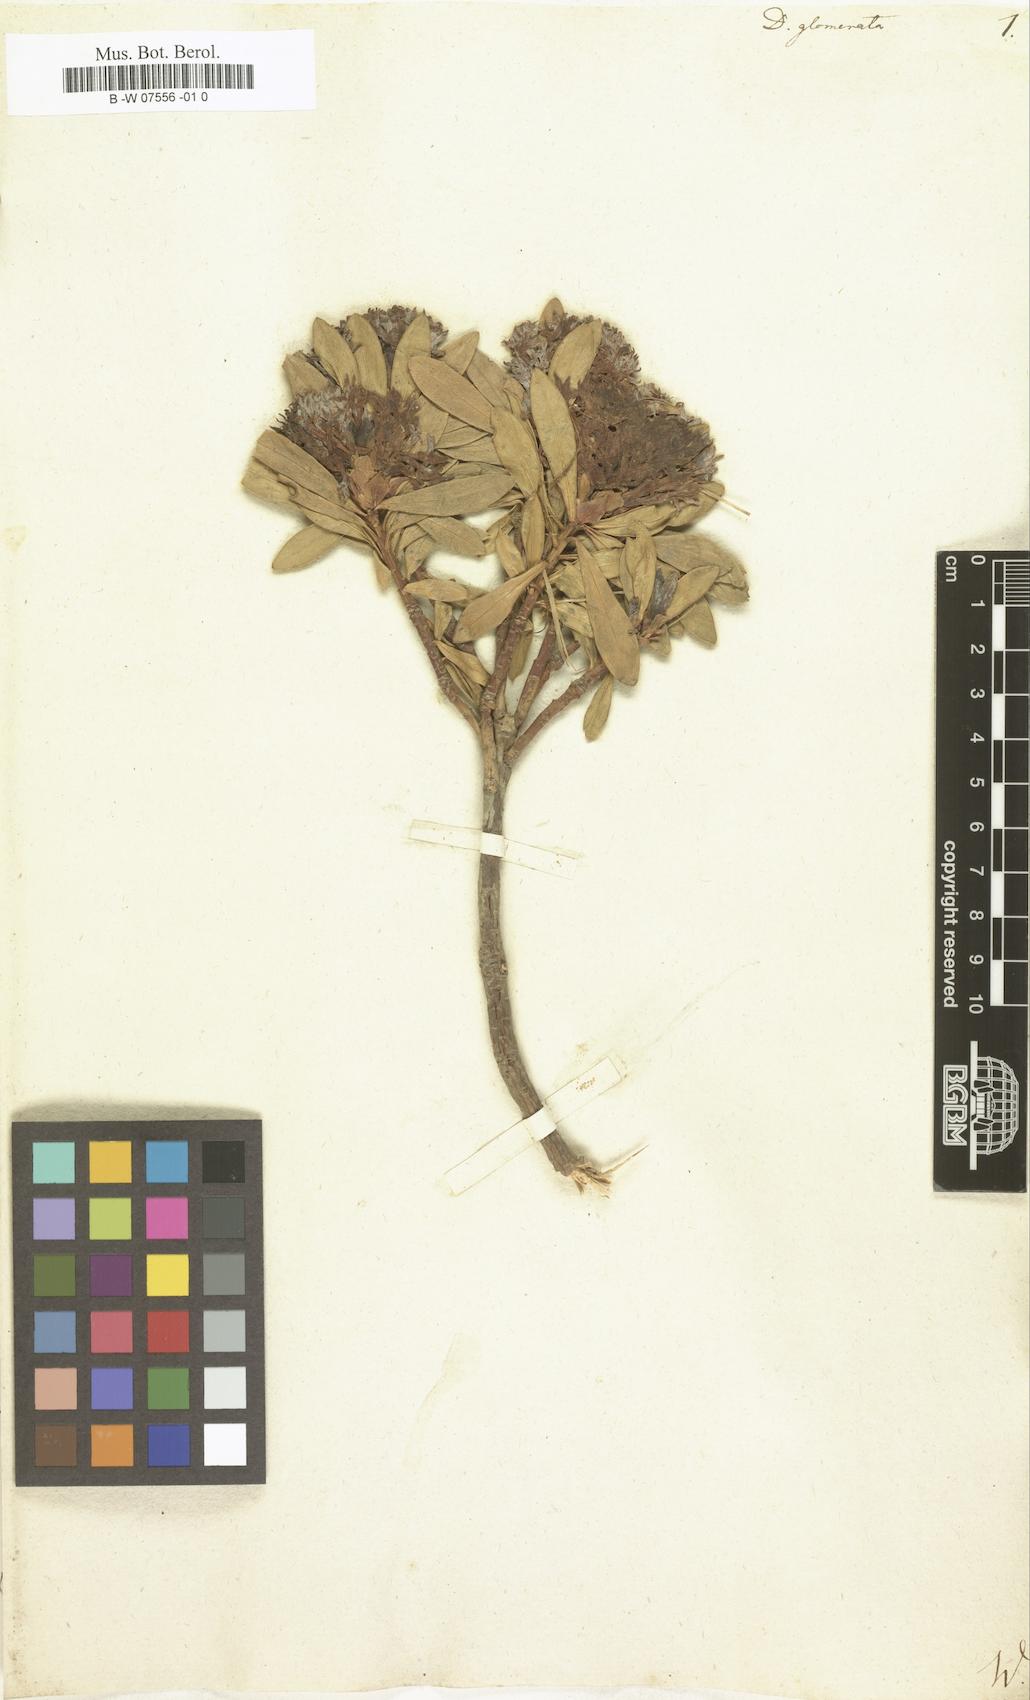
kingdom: Plantae
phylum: Tracheophyta
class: Magnoliopsida
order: Malvales
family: Thymelaeaceae
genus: Daphne
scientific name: Daphne glomerata
